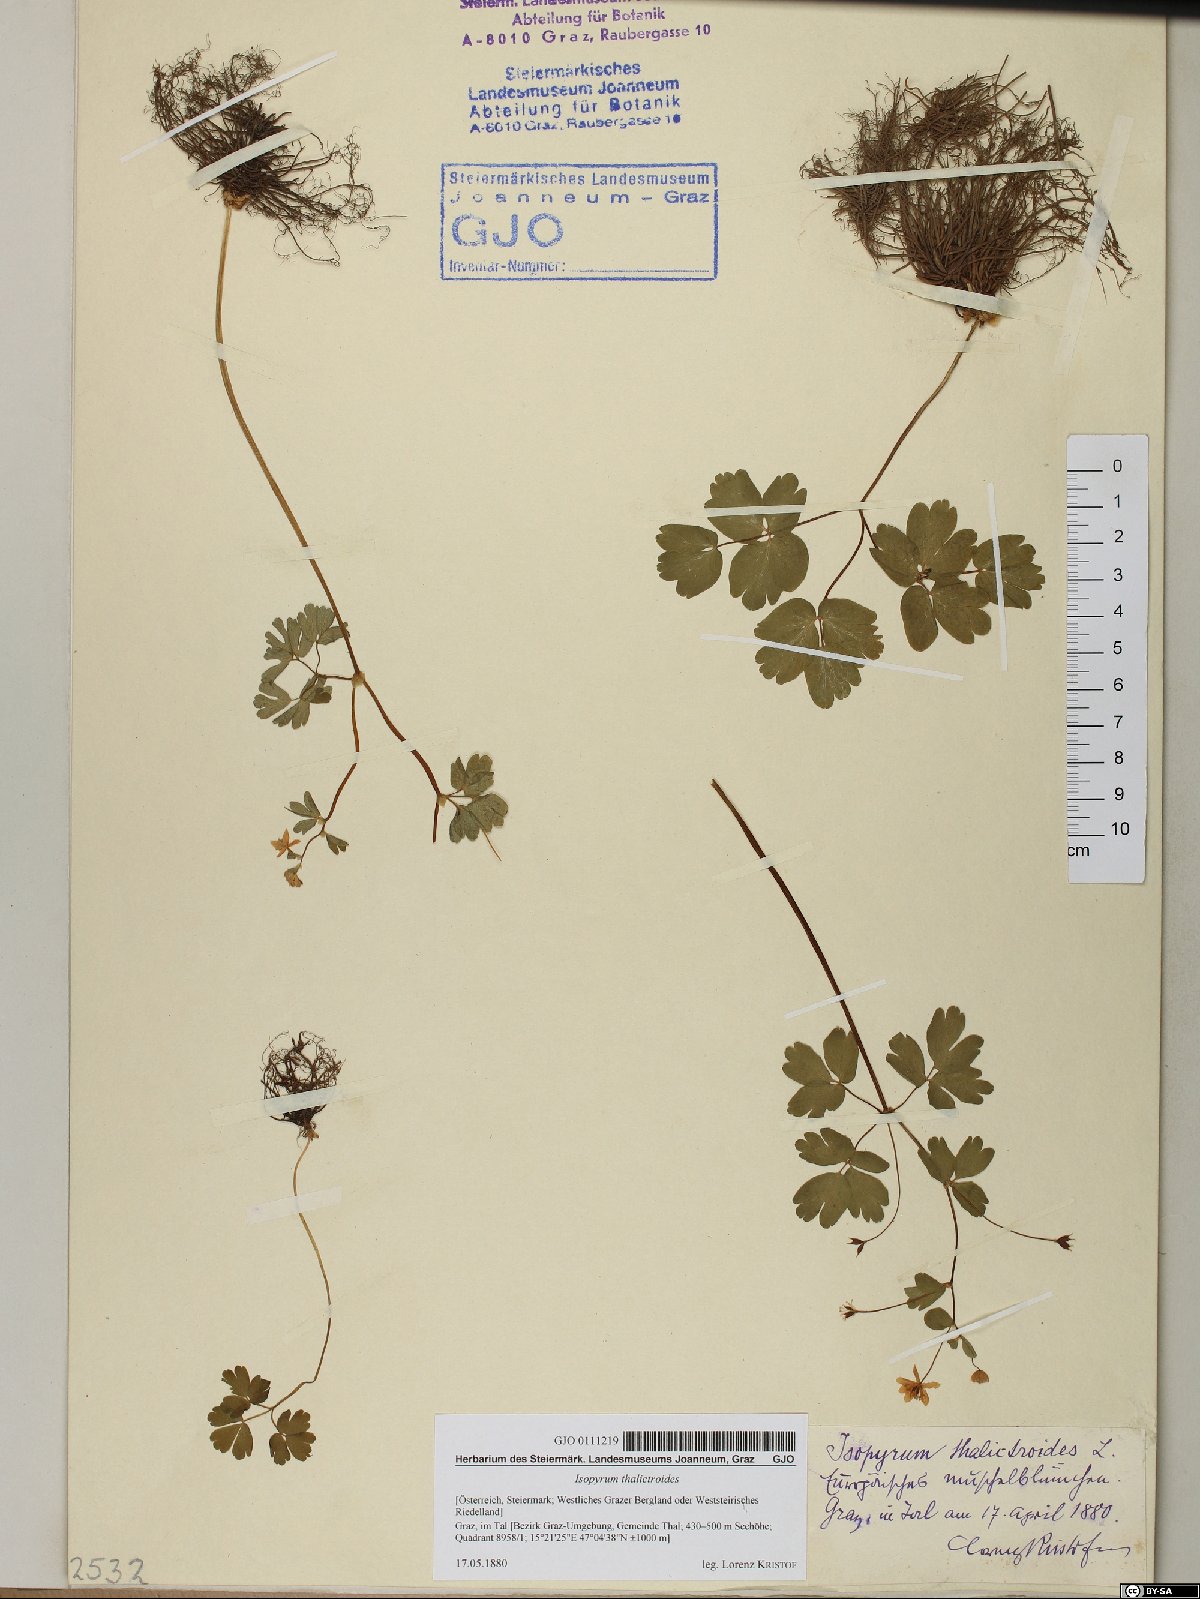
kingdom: Plantae
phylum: Tracheophyta
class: Magnoliopsida
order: Ranunculales
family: Ranunculaceae
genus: Isopyrum
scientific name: Isopyrum thalictroides
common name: Isopyrum
